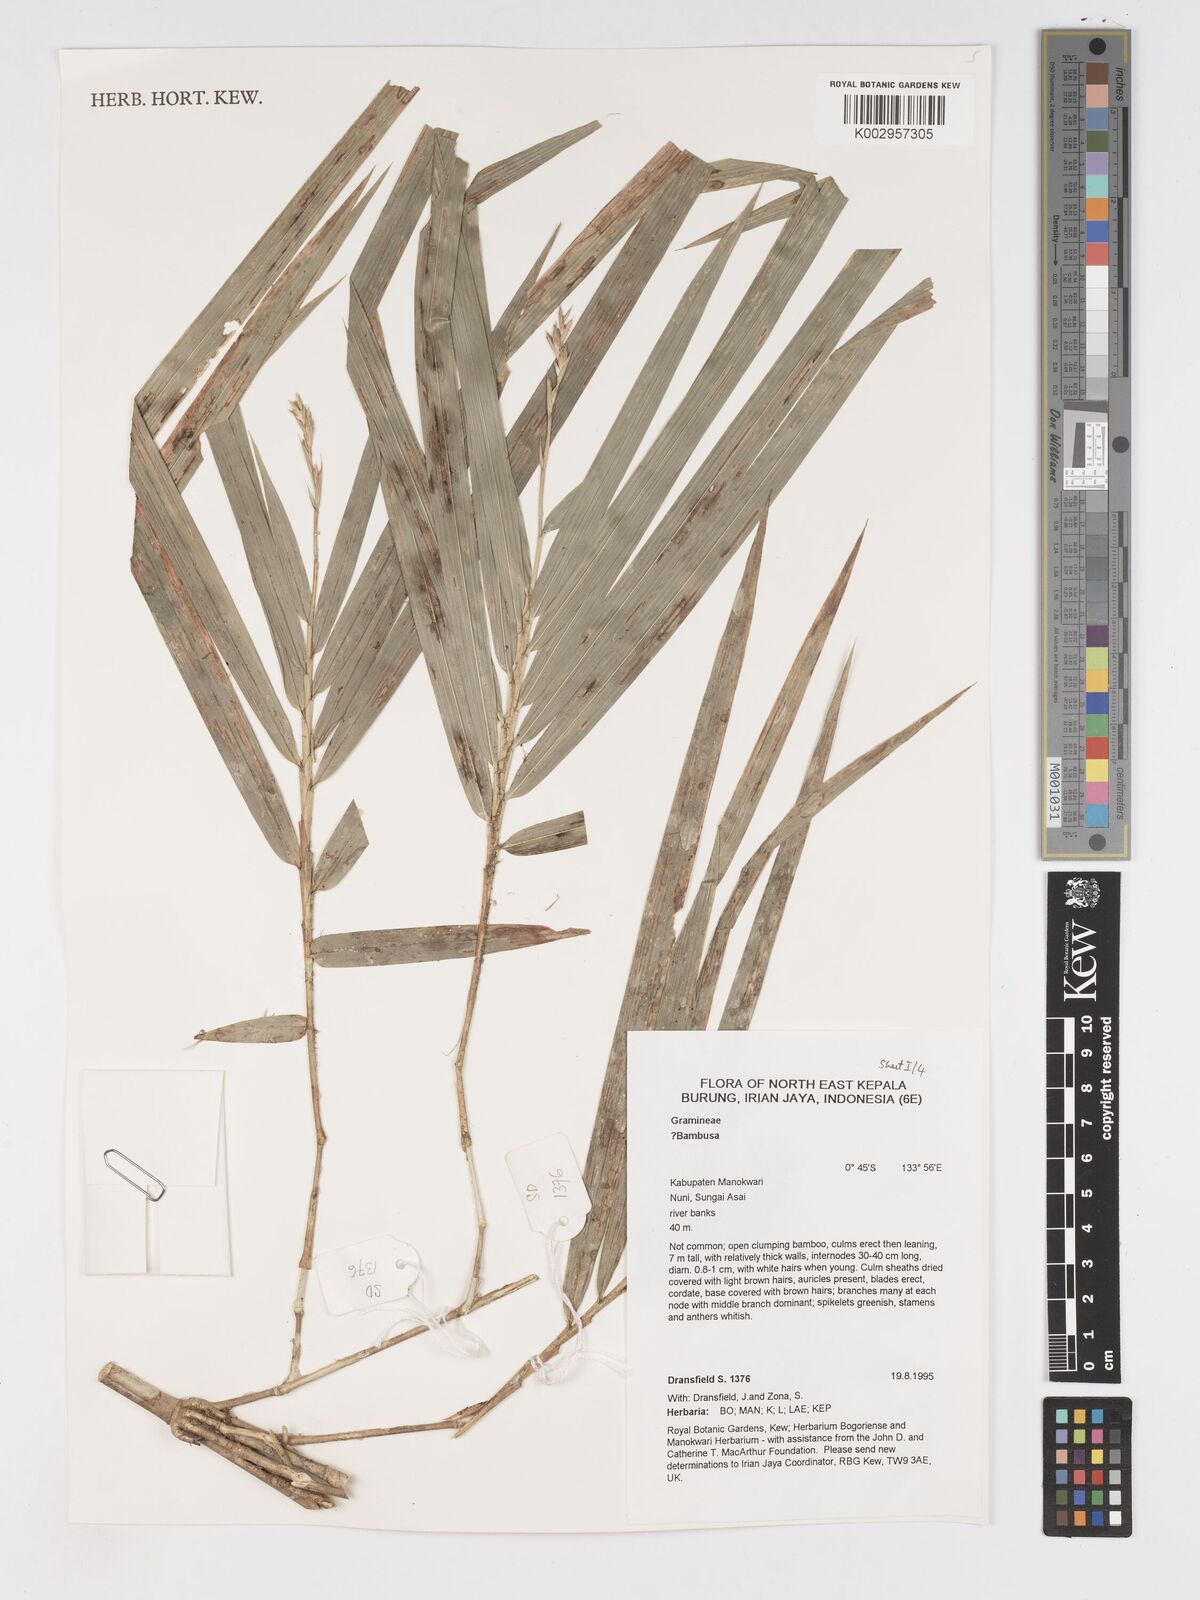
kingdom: Plantae
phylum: Tracheophyta
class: Liliopsida
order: Poales
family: Poaceae
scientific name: Poaceae
